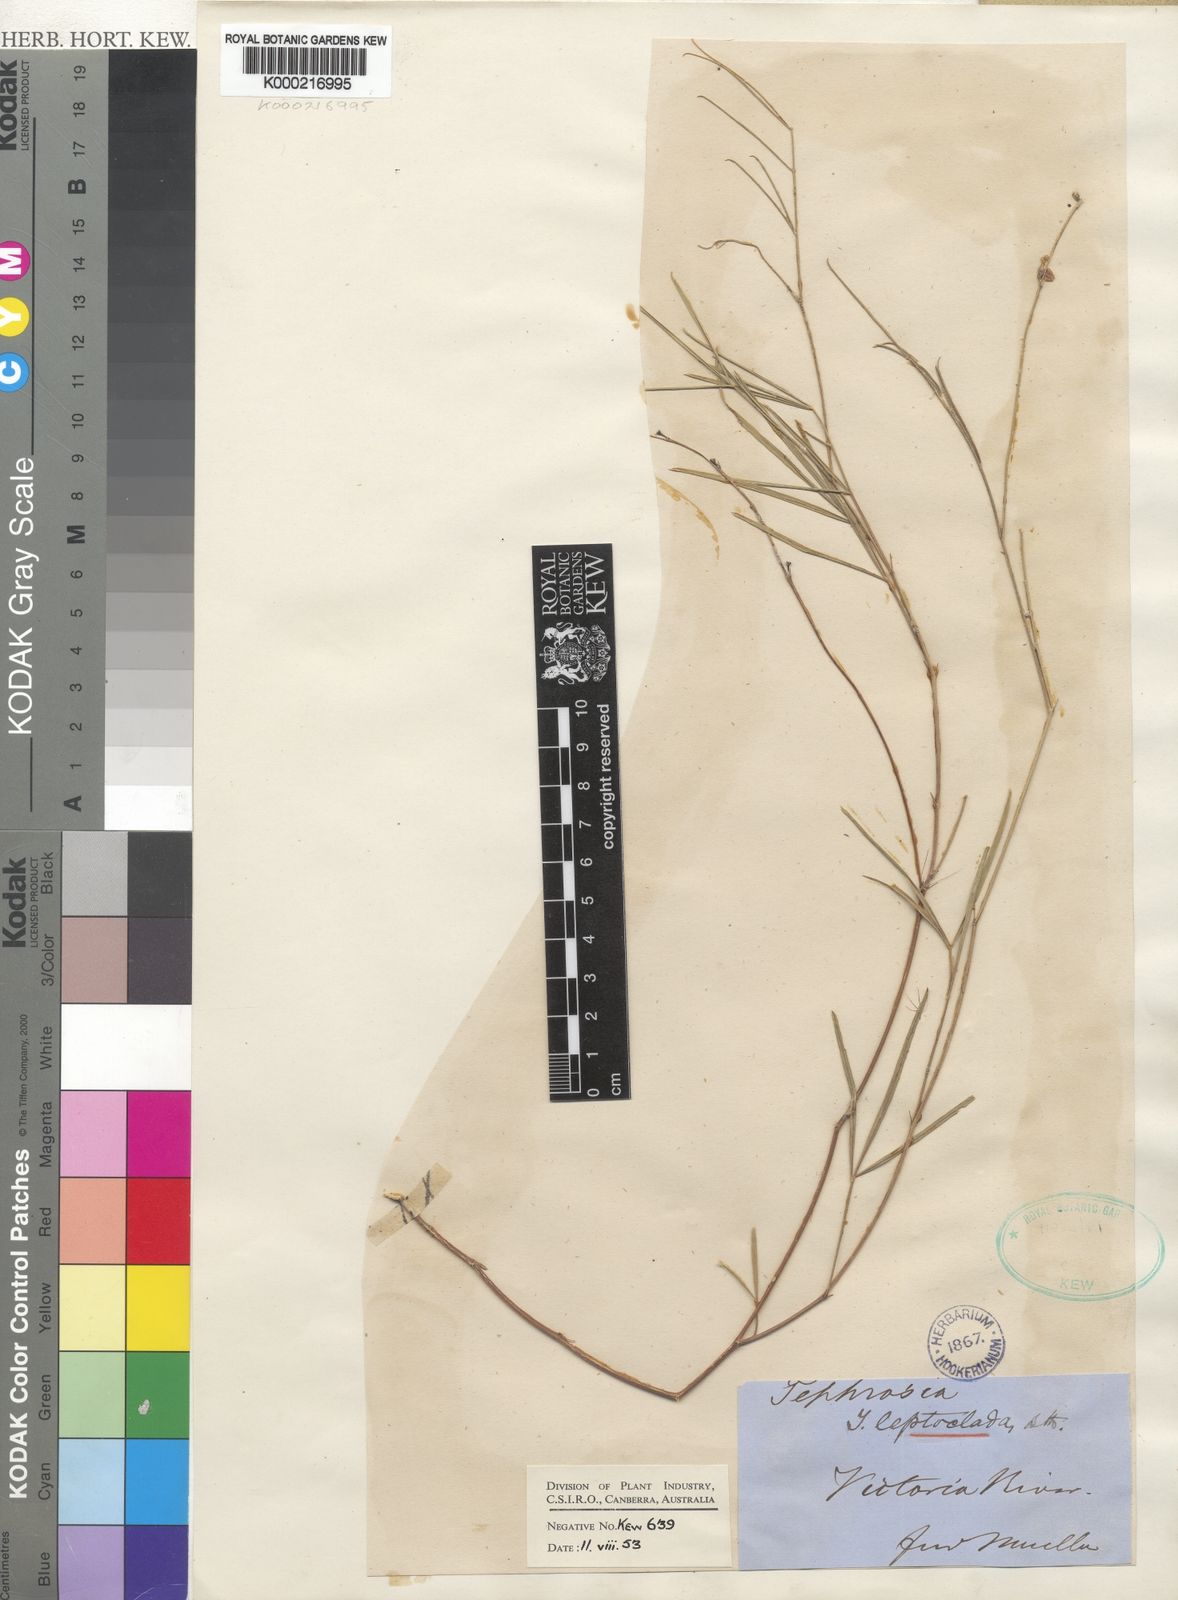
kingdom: Plantae
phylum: Tracheophyta
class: Magnoliopsida
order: Fabales
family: Fabaceae
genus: Tephrosia
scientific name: Tephrosia leptoclada
